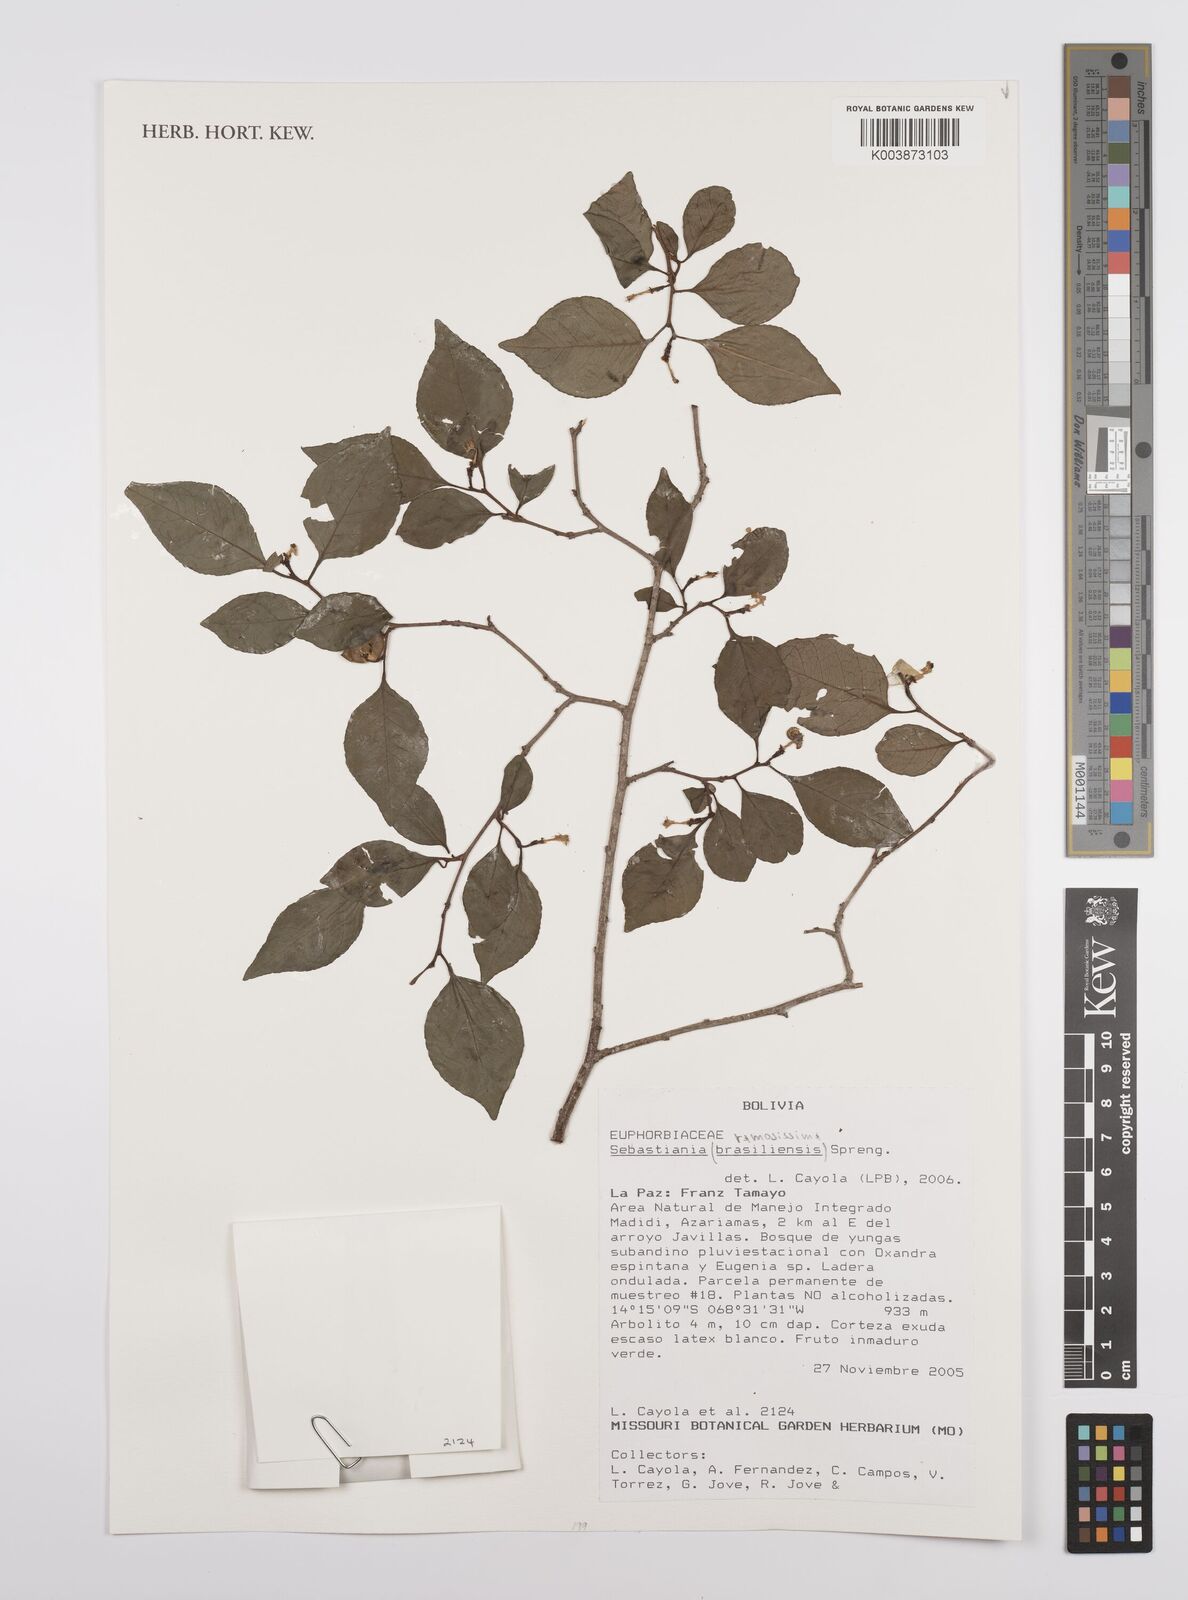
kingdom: Plantae
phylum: Tracheophyta
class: Magnoliopsida
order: Malpighiales
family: Euphorbiaceae
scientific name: Euphorbiaceae
